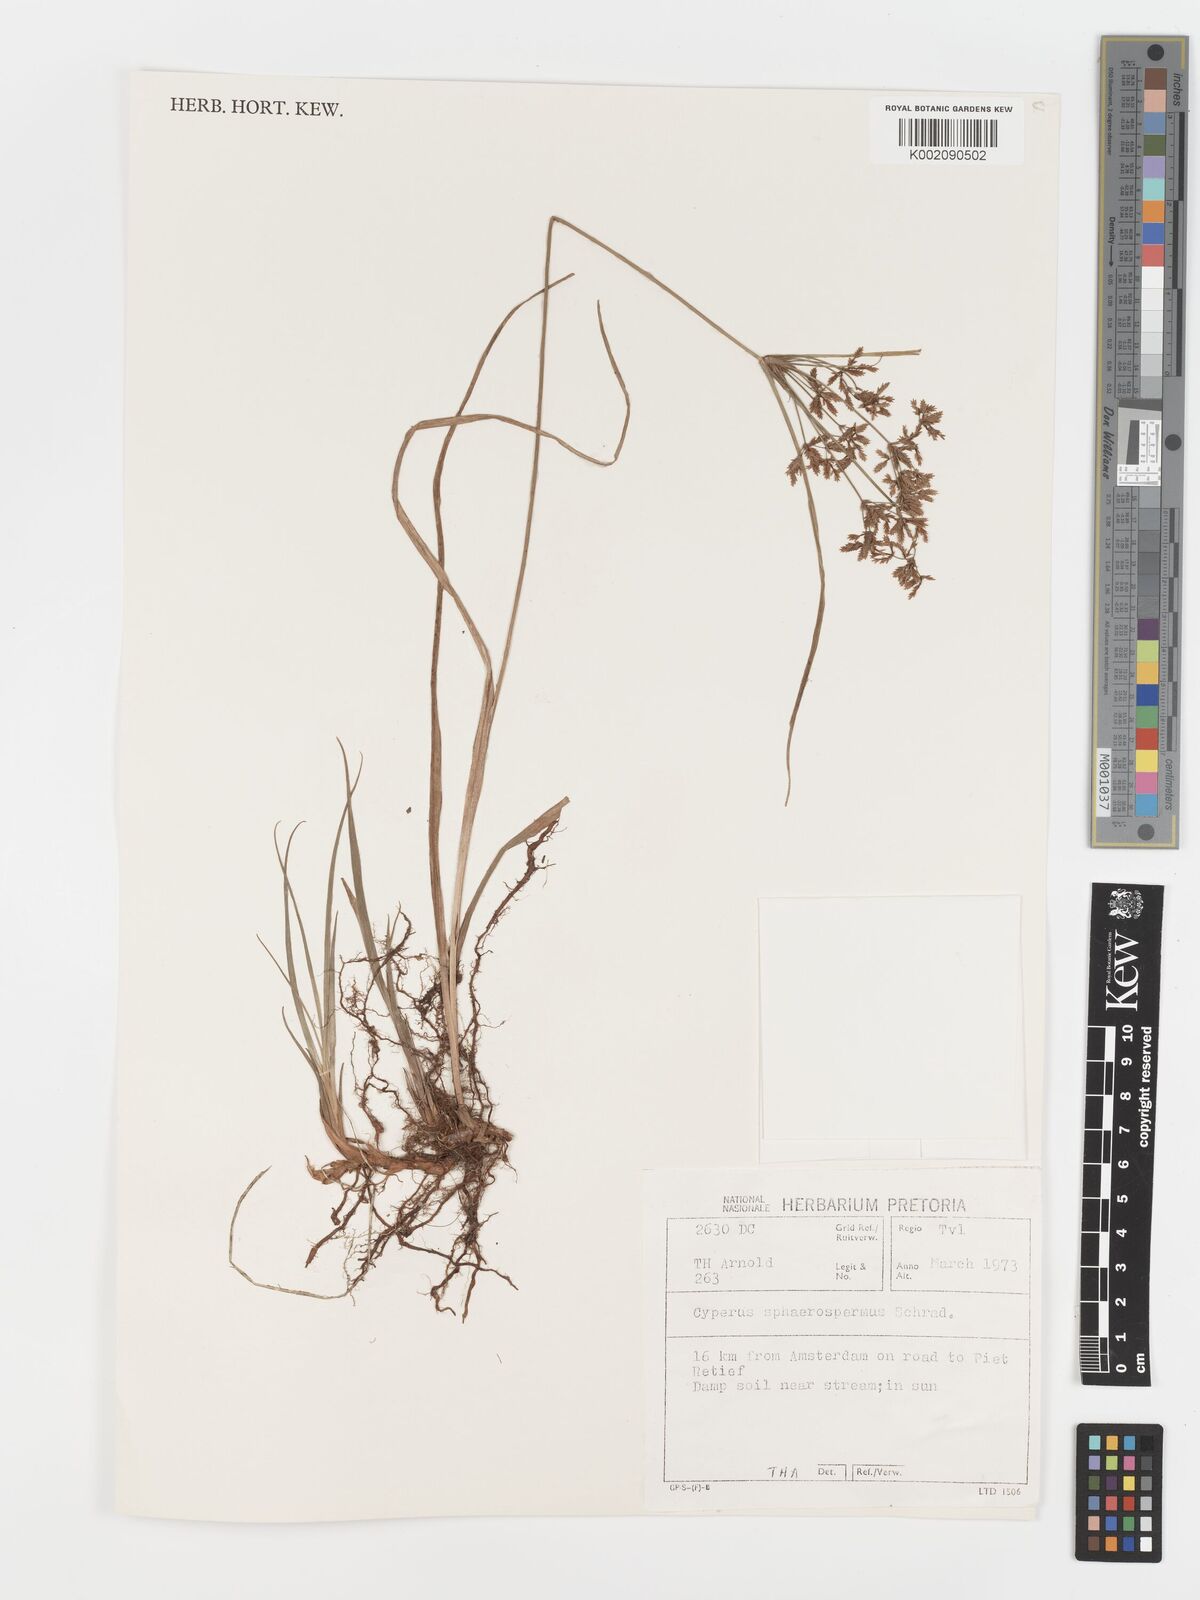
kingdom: Plantae
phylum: Tracheophyta
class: Liliopsida
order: Poales
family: Cyperaceae
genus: Cyperus
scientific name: Cyperus sphaerospermus
